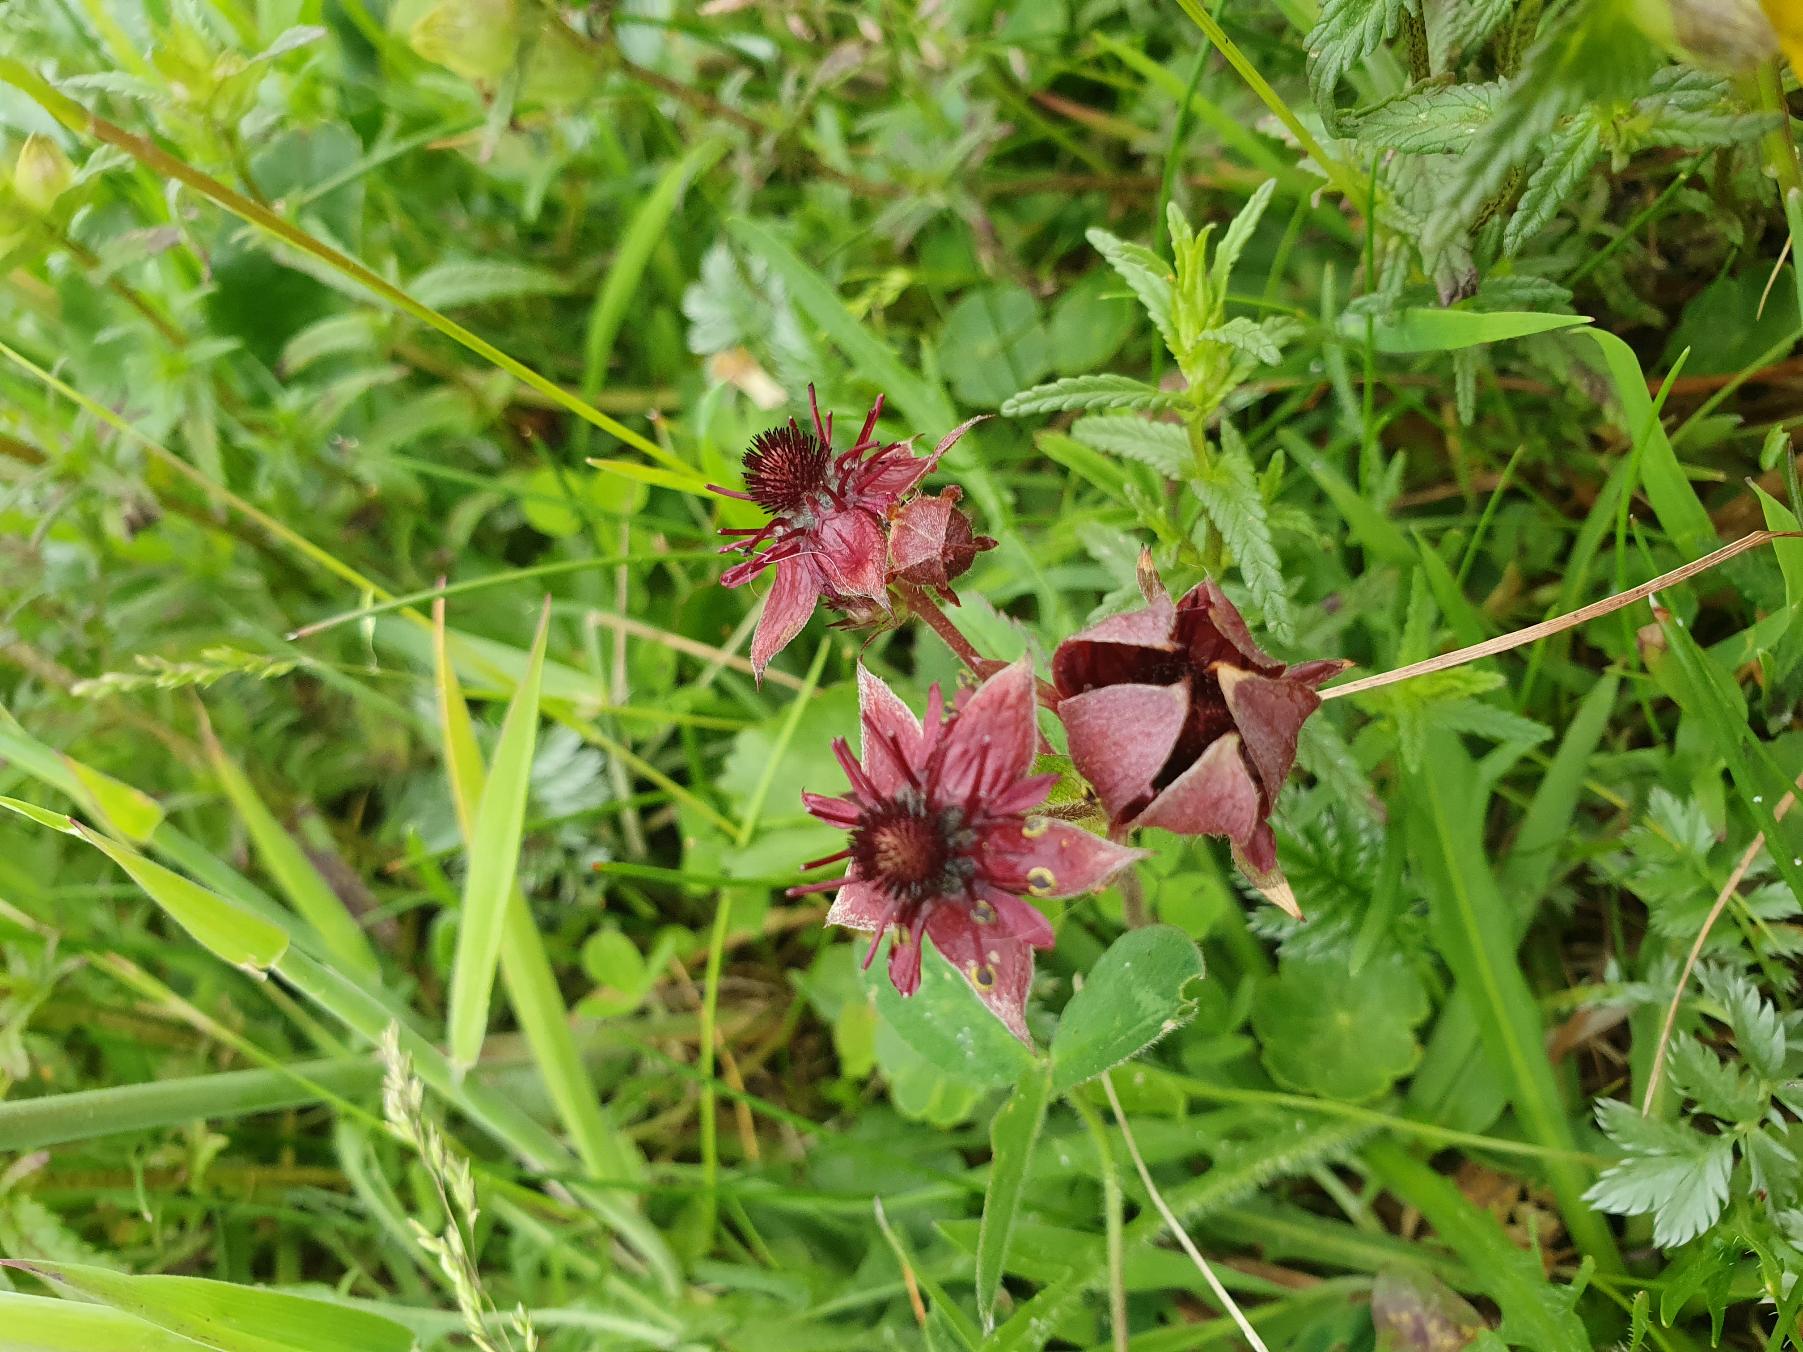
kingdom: Plantae
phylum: Tracheophyta
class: Magnoliopsida
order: Rosales
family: Rosaceae
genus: Comarum
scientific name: Comarum palustre
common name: Kragefod
